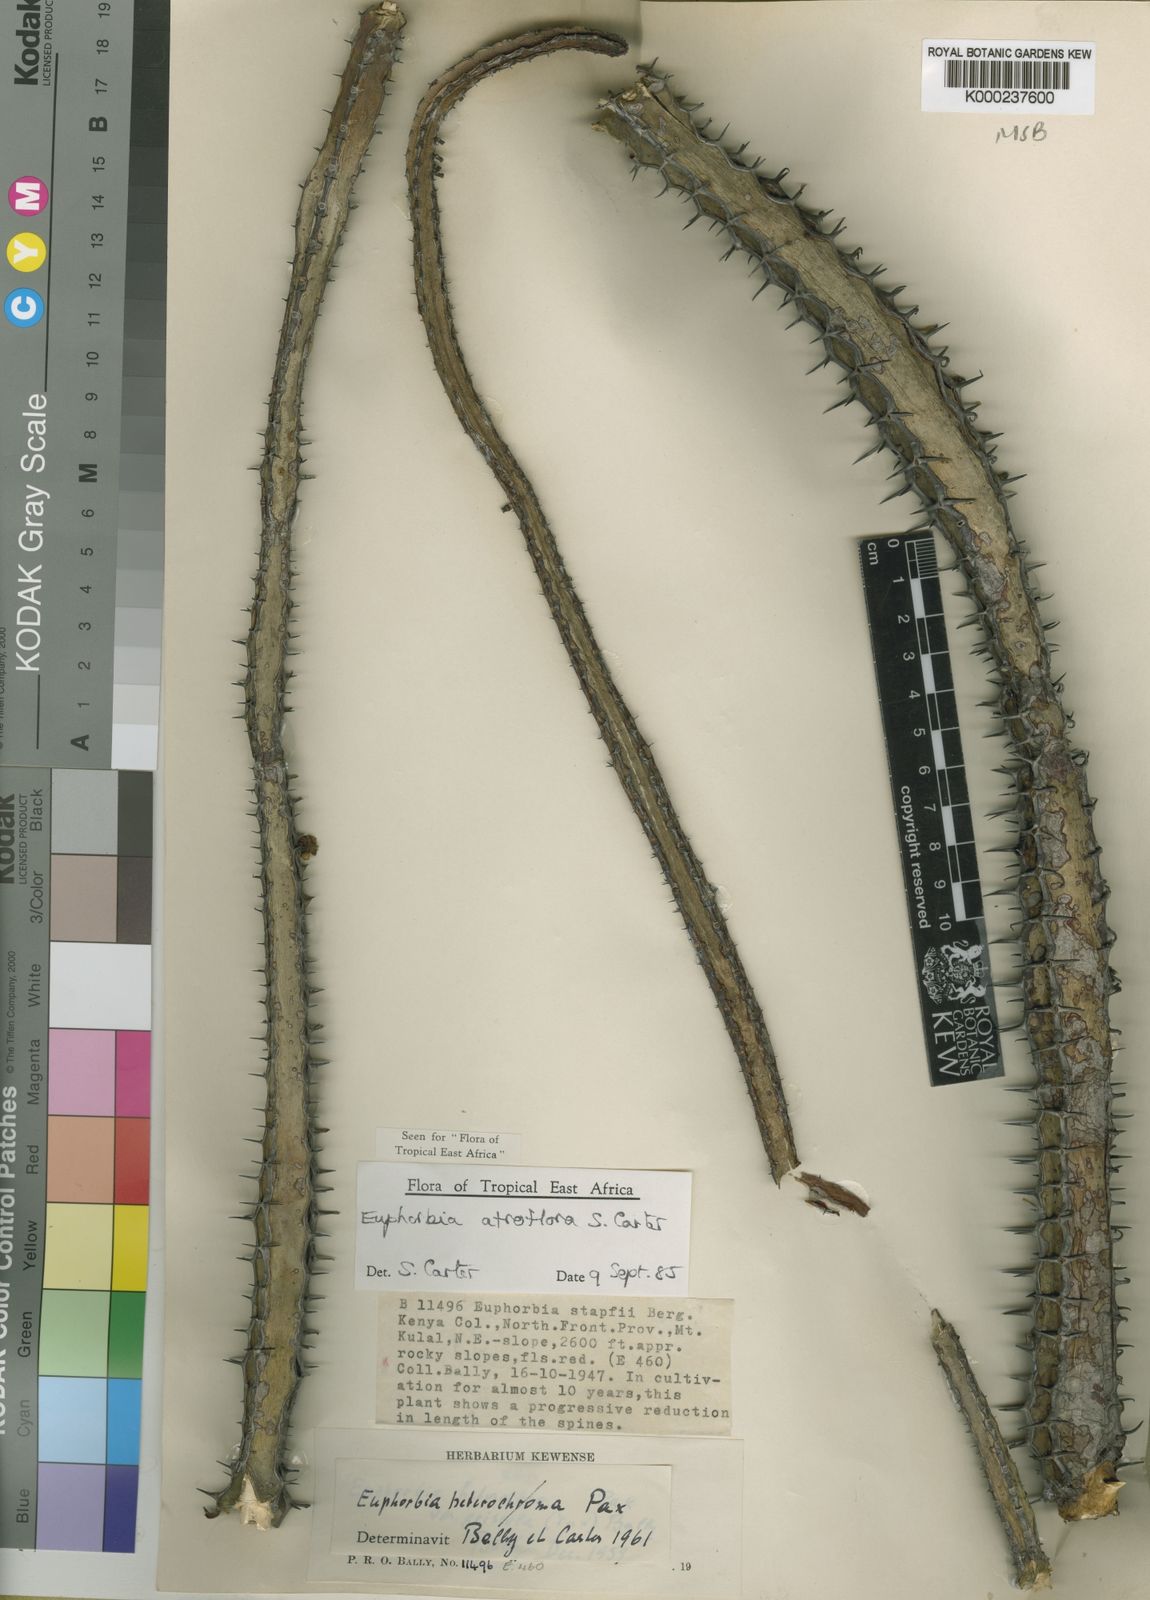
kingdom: Plantae
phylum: Tracheophyta
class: Magnoliopsida
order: Malpighiales
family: Euphorbiaceae
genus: Euphorbia
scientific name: Euphorbia atroflora
